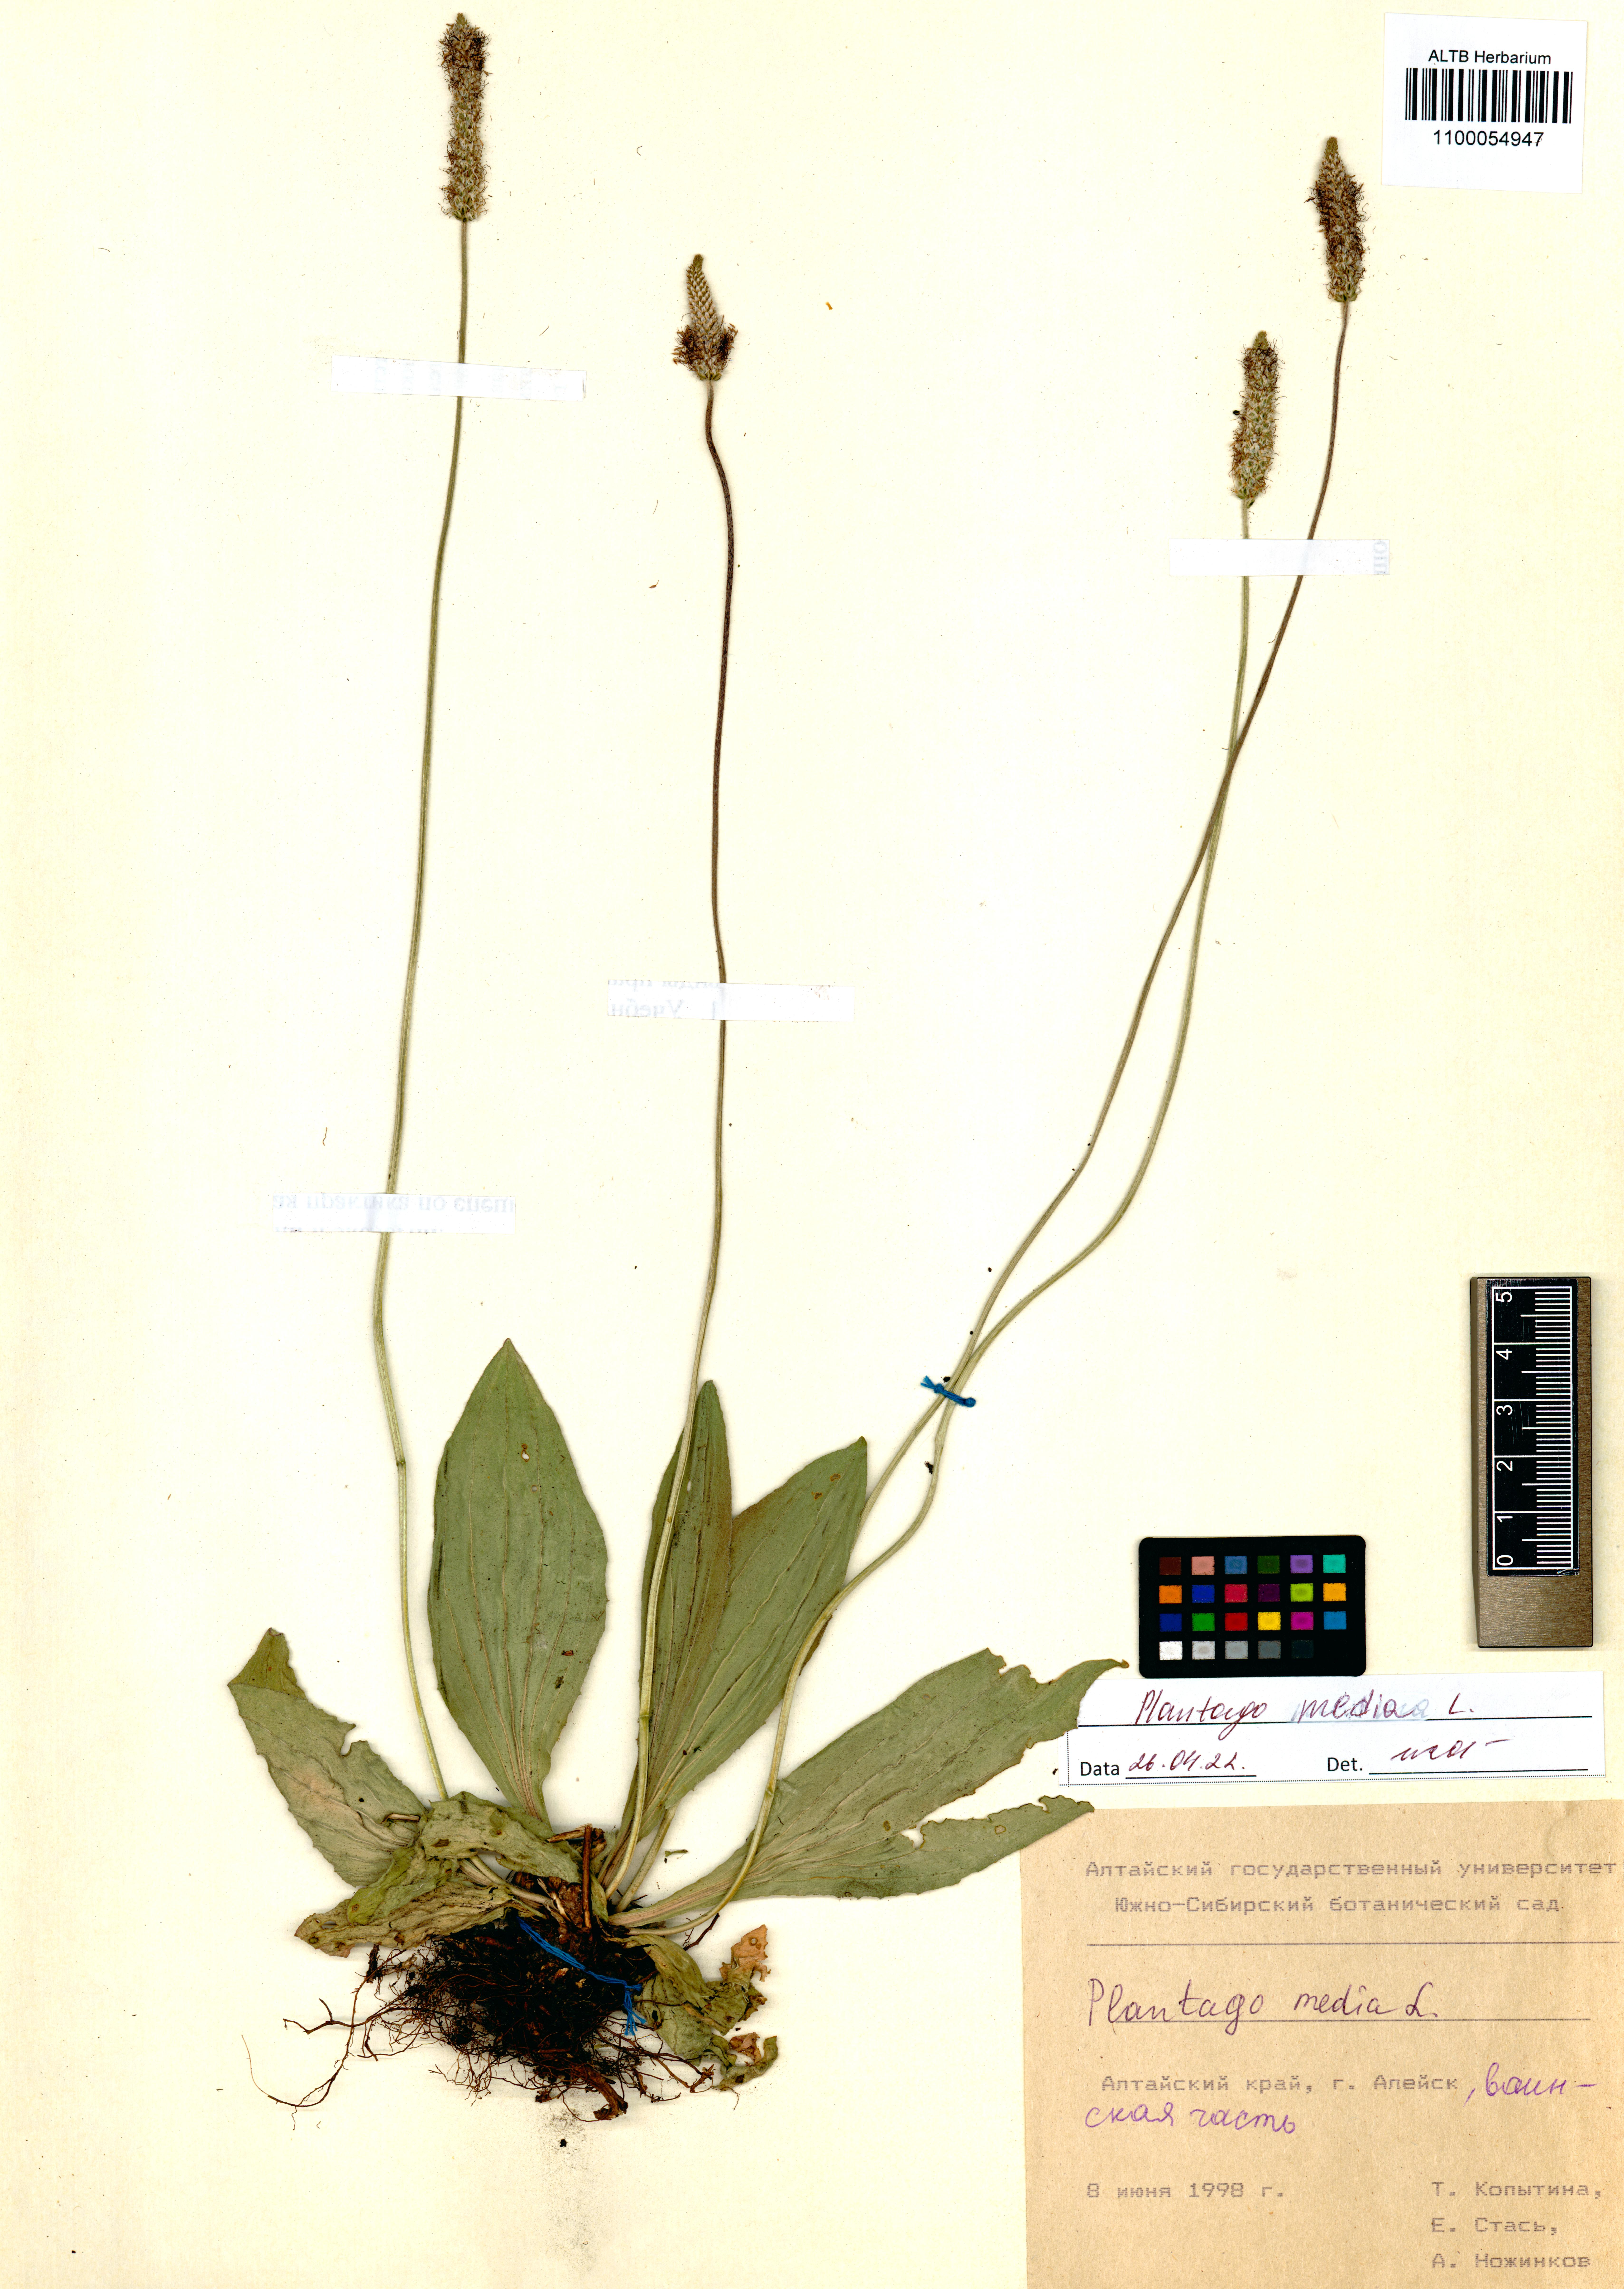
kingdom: Plantae
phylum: Tracheophyta
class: Magnoliopsida
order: Lamiales
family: Plantaginaceae
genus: Plantago
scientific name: Plantago media
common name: Hoary plantain
